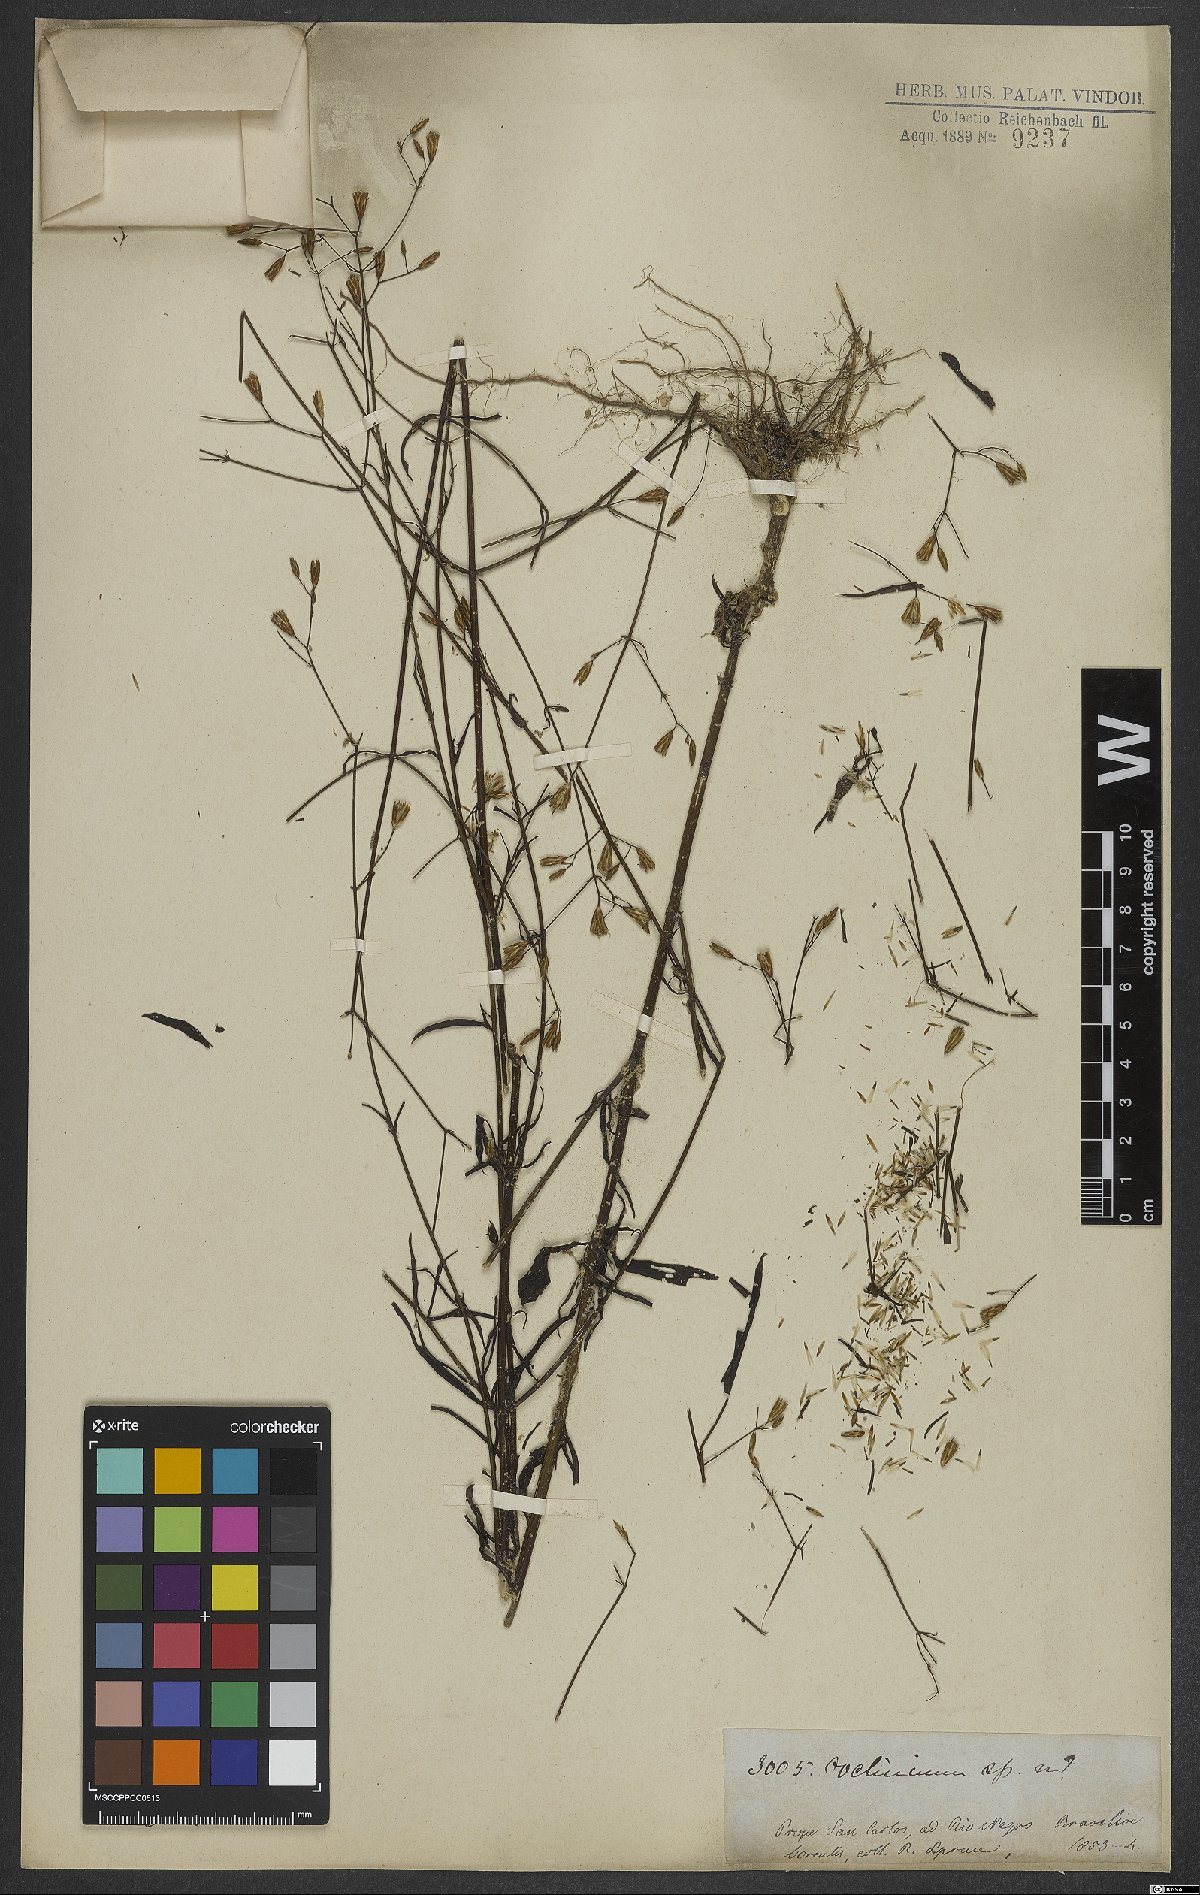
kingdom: Plantae
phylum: Tracheophyta
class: Magnoliopsida
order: Asterales
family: Asteraceae
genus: Eupatorium
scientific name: Eupatorium
